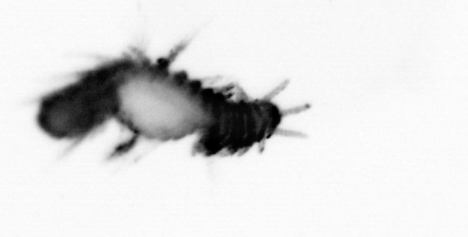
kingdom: Animalia
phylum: Annelida
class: Polychaeta
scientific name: Polychaeta
